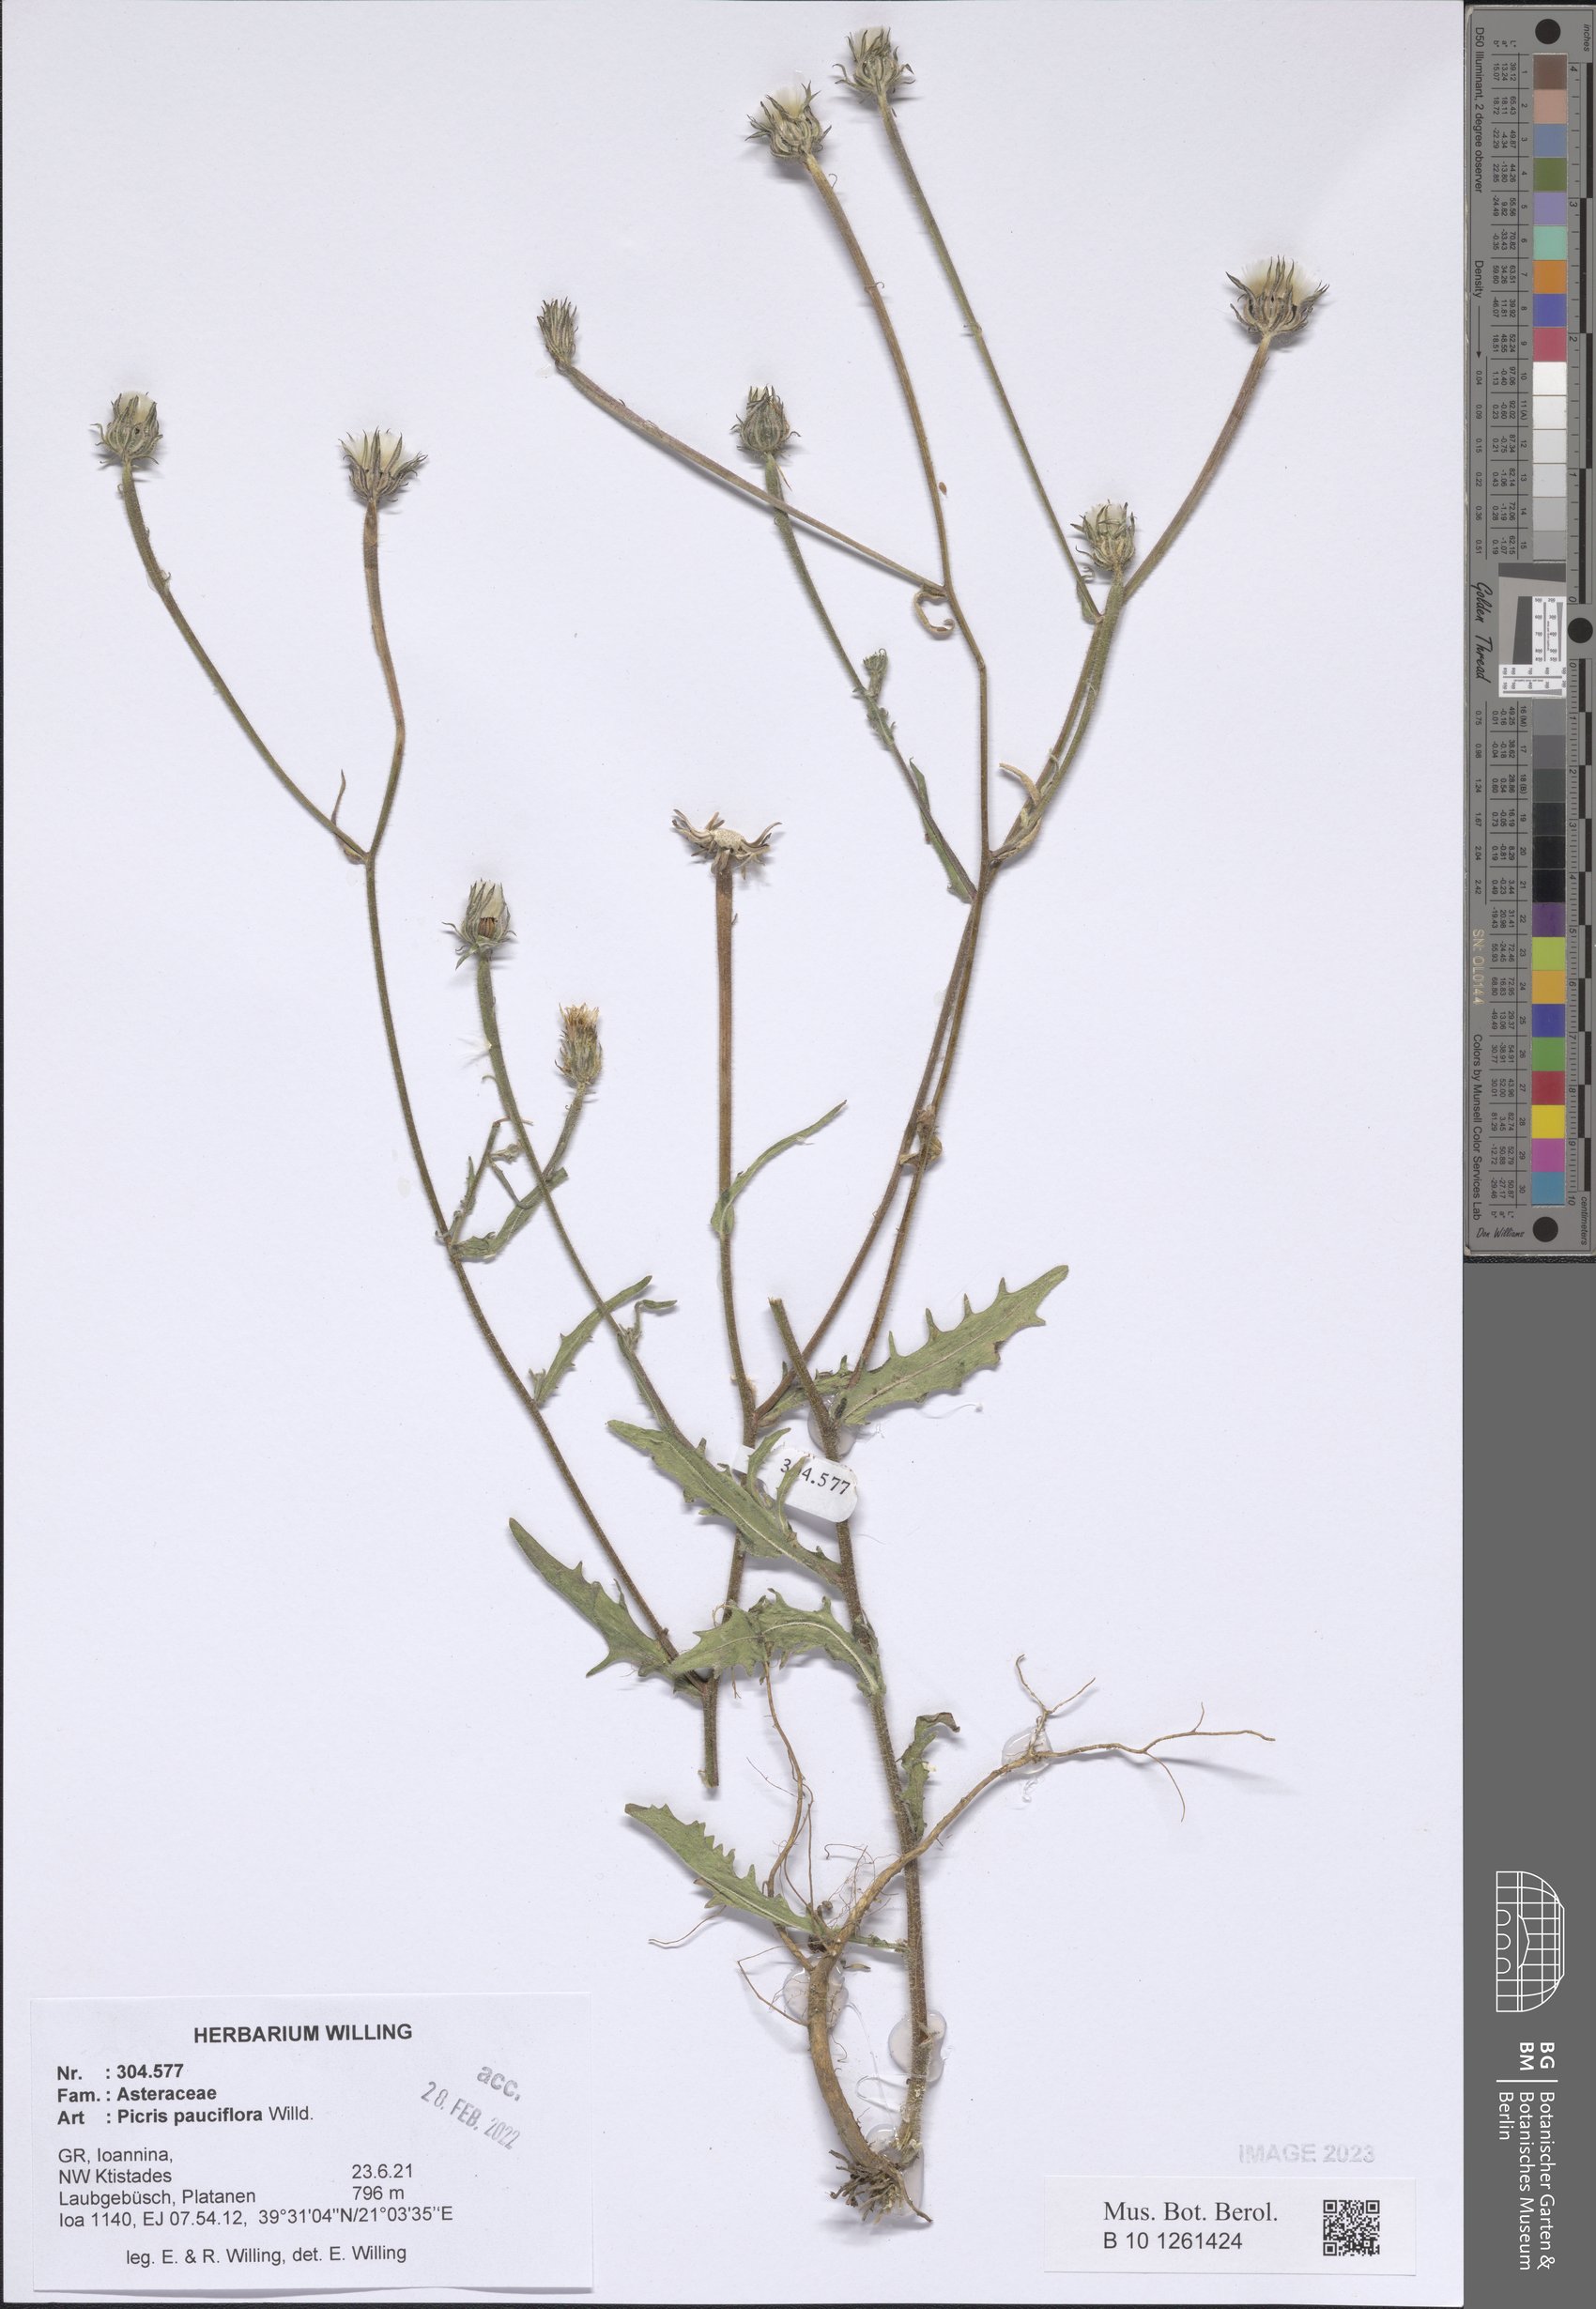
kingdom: Plantae
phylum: Tracheophyta
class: Magnoliopsida
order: Asterales
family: Asteraceae
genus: Picris
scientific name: Picris pauciflora
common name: Smallflower oxtongue
